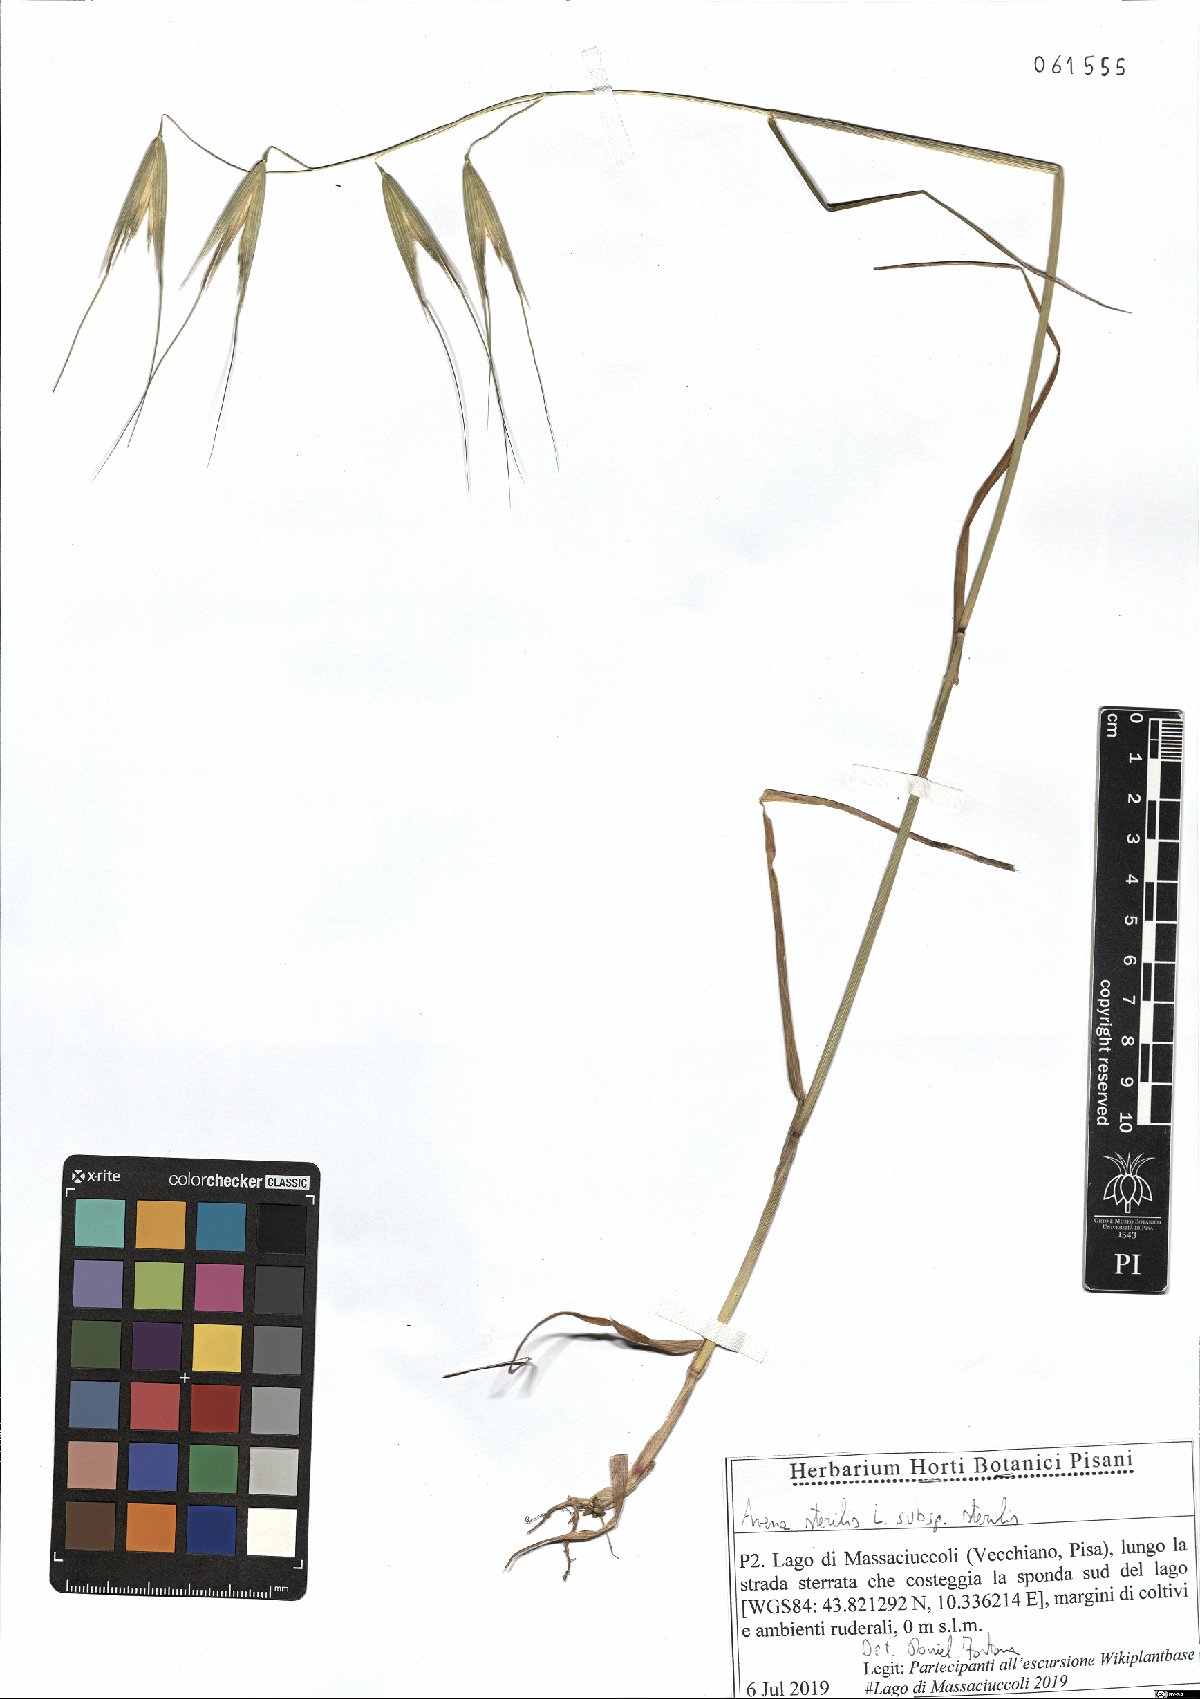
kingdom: Plantae
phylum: Tracheophyta
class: Liliopsida
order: Poales
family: Poaceae
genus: Avena
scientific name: Avena sterilis
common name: Animated oat
